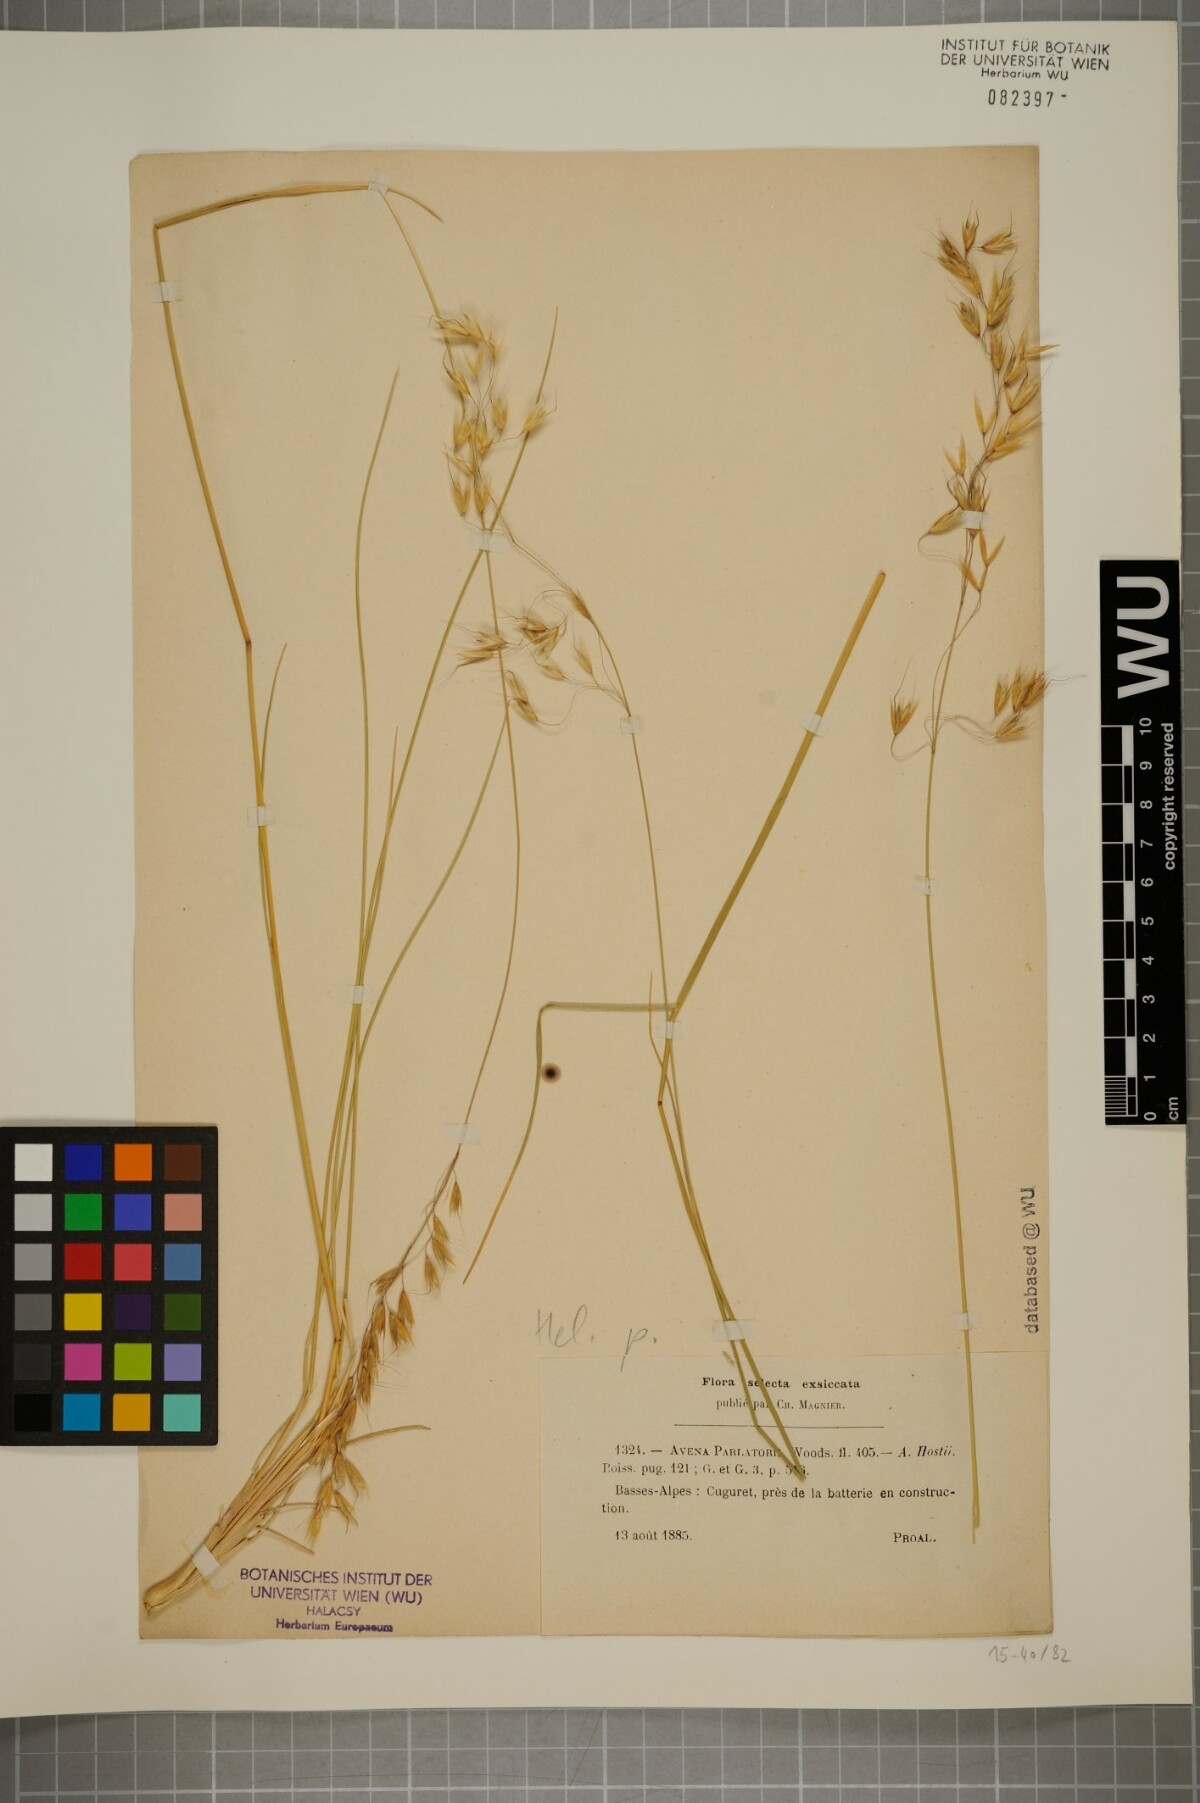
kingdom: Plantae
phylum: Tracheophyta
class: Liliopsida
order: Poales
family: Poaceae
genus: Helictotrichon
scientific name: Helictotrichon parlatorei
